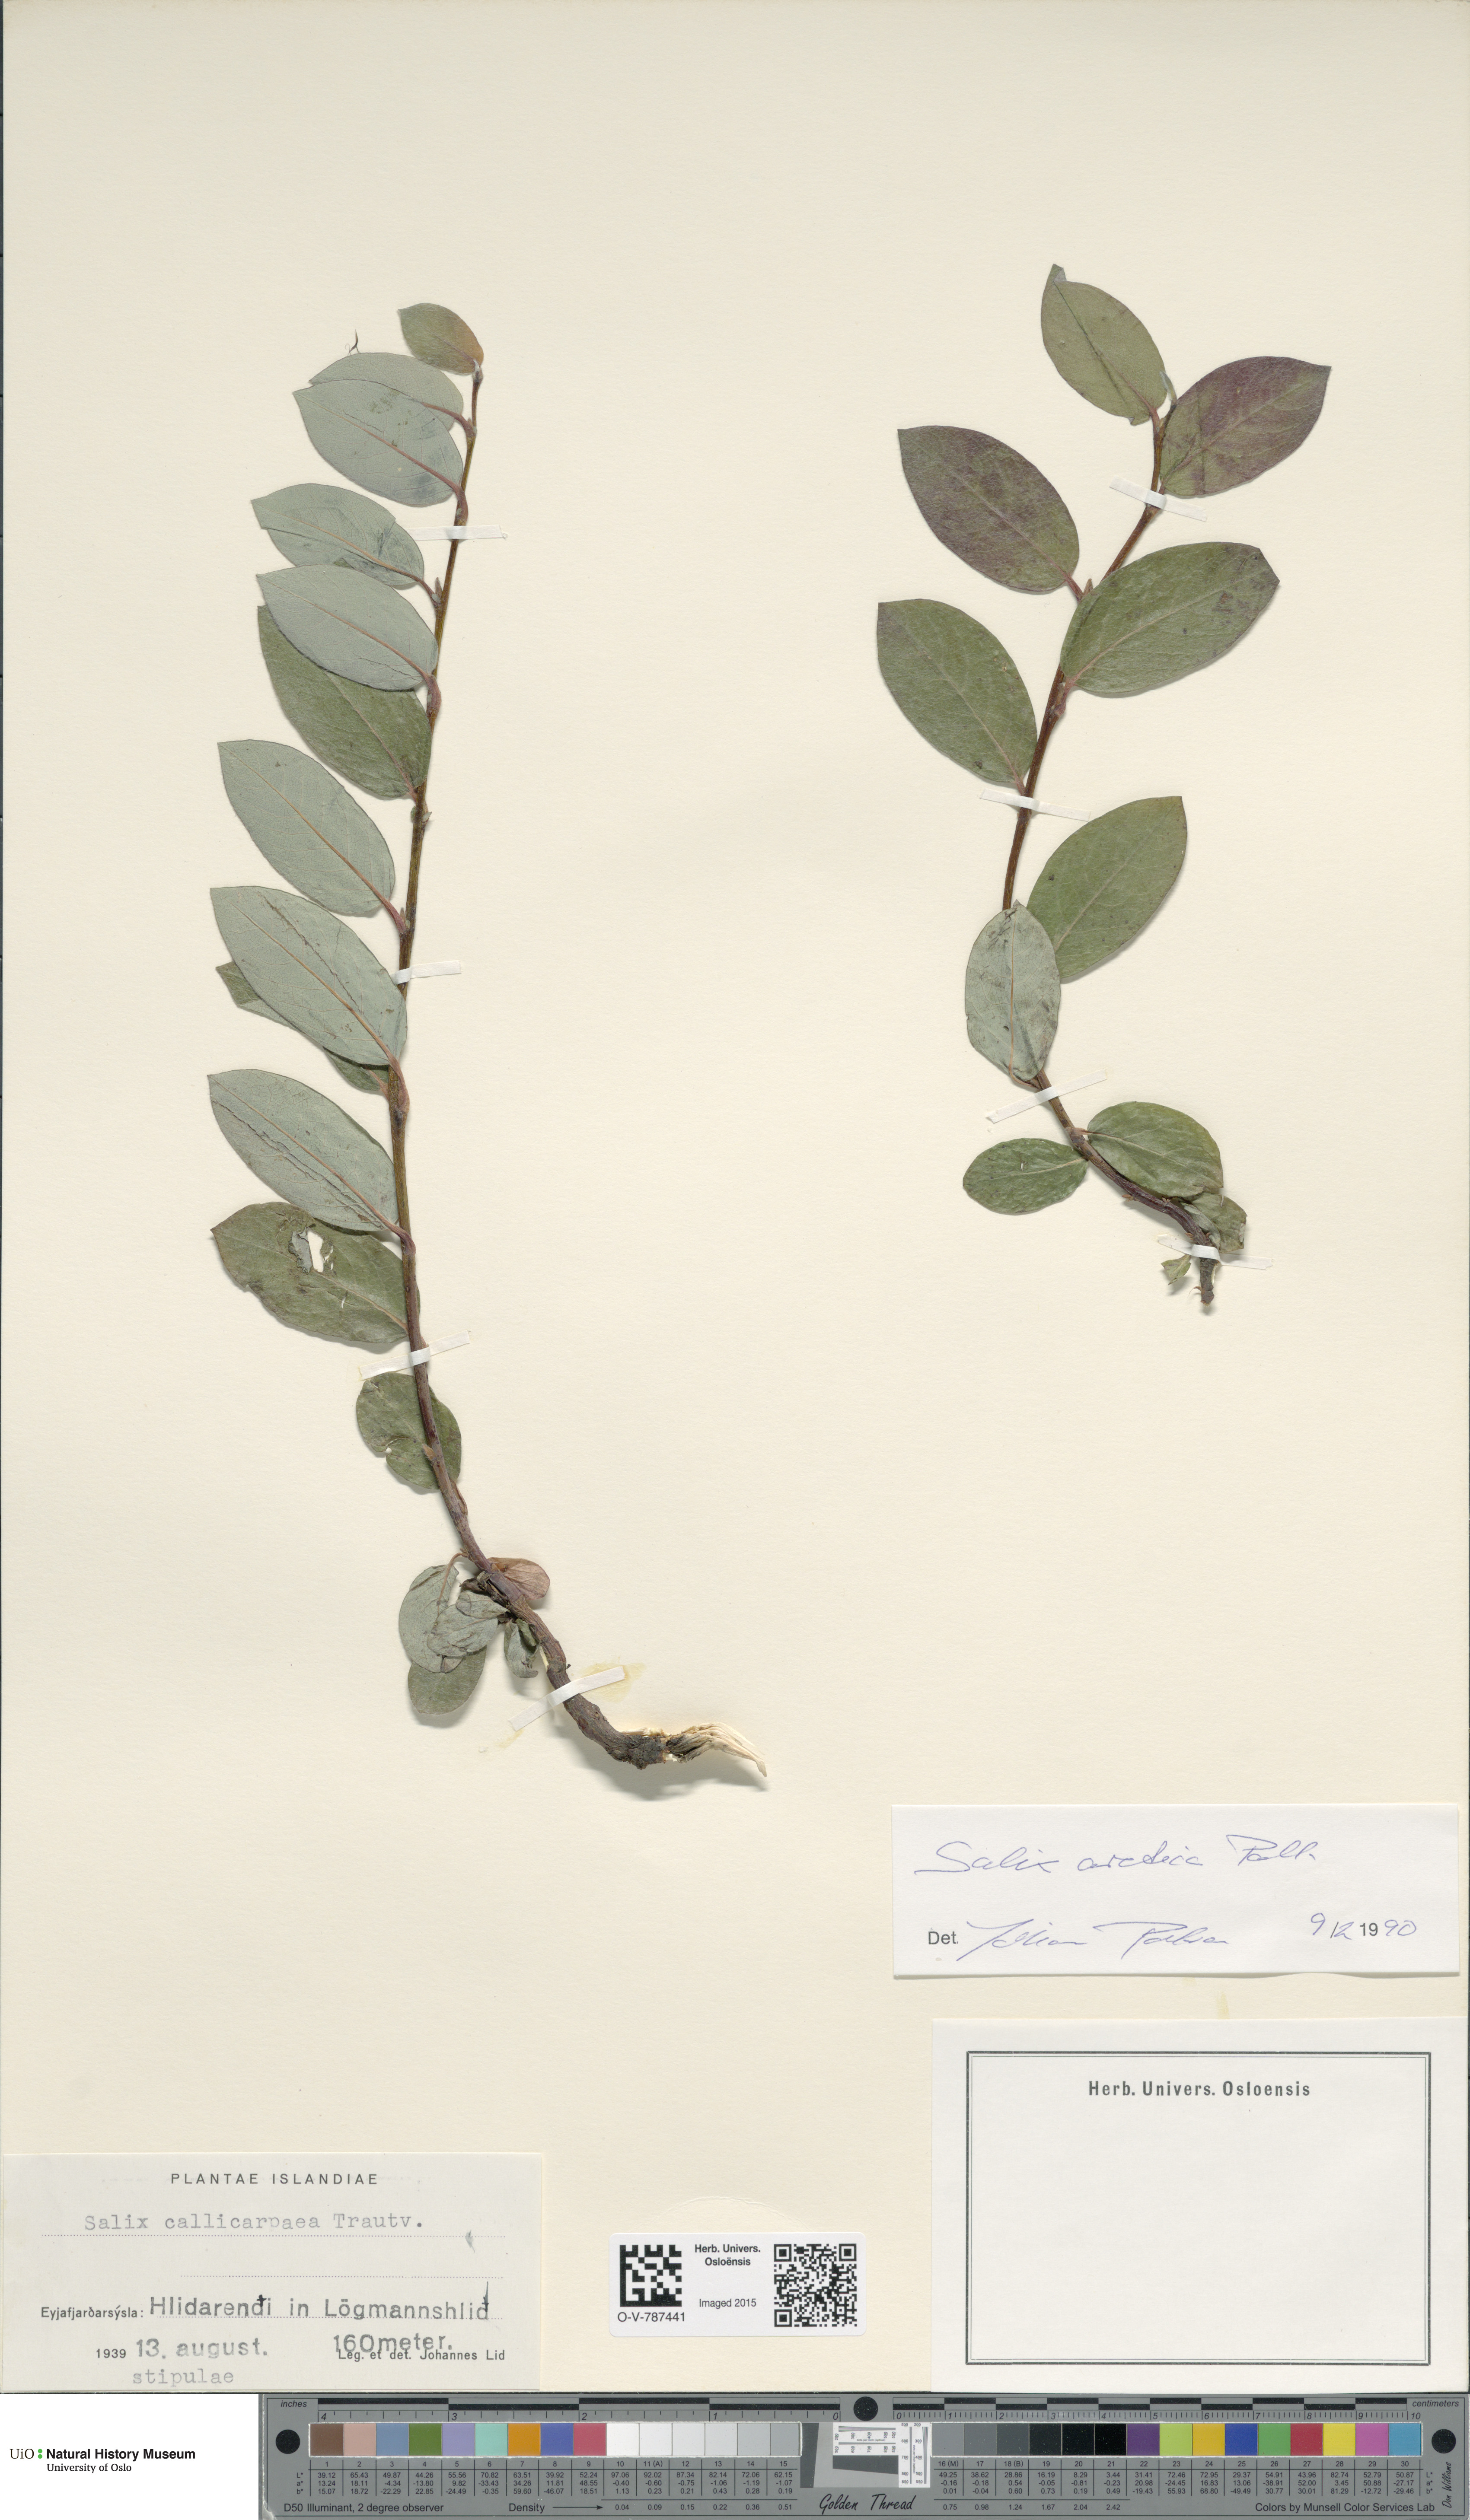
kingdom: Plantae
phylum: Tracheophyta
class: Magnoliopsida
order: Malpighiales
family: Salicaceae
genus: Salix
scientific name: Salix glauca
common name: Glaucous willow
